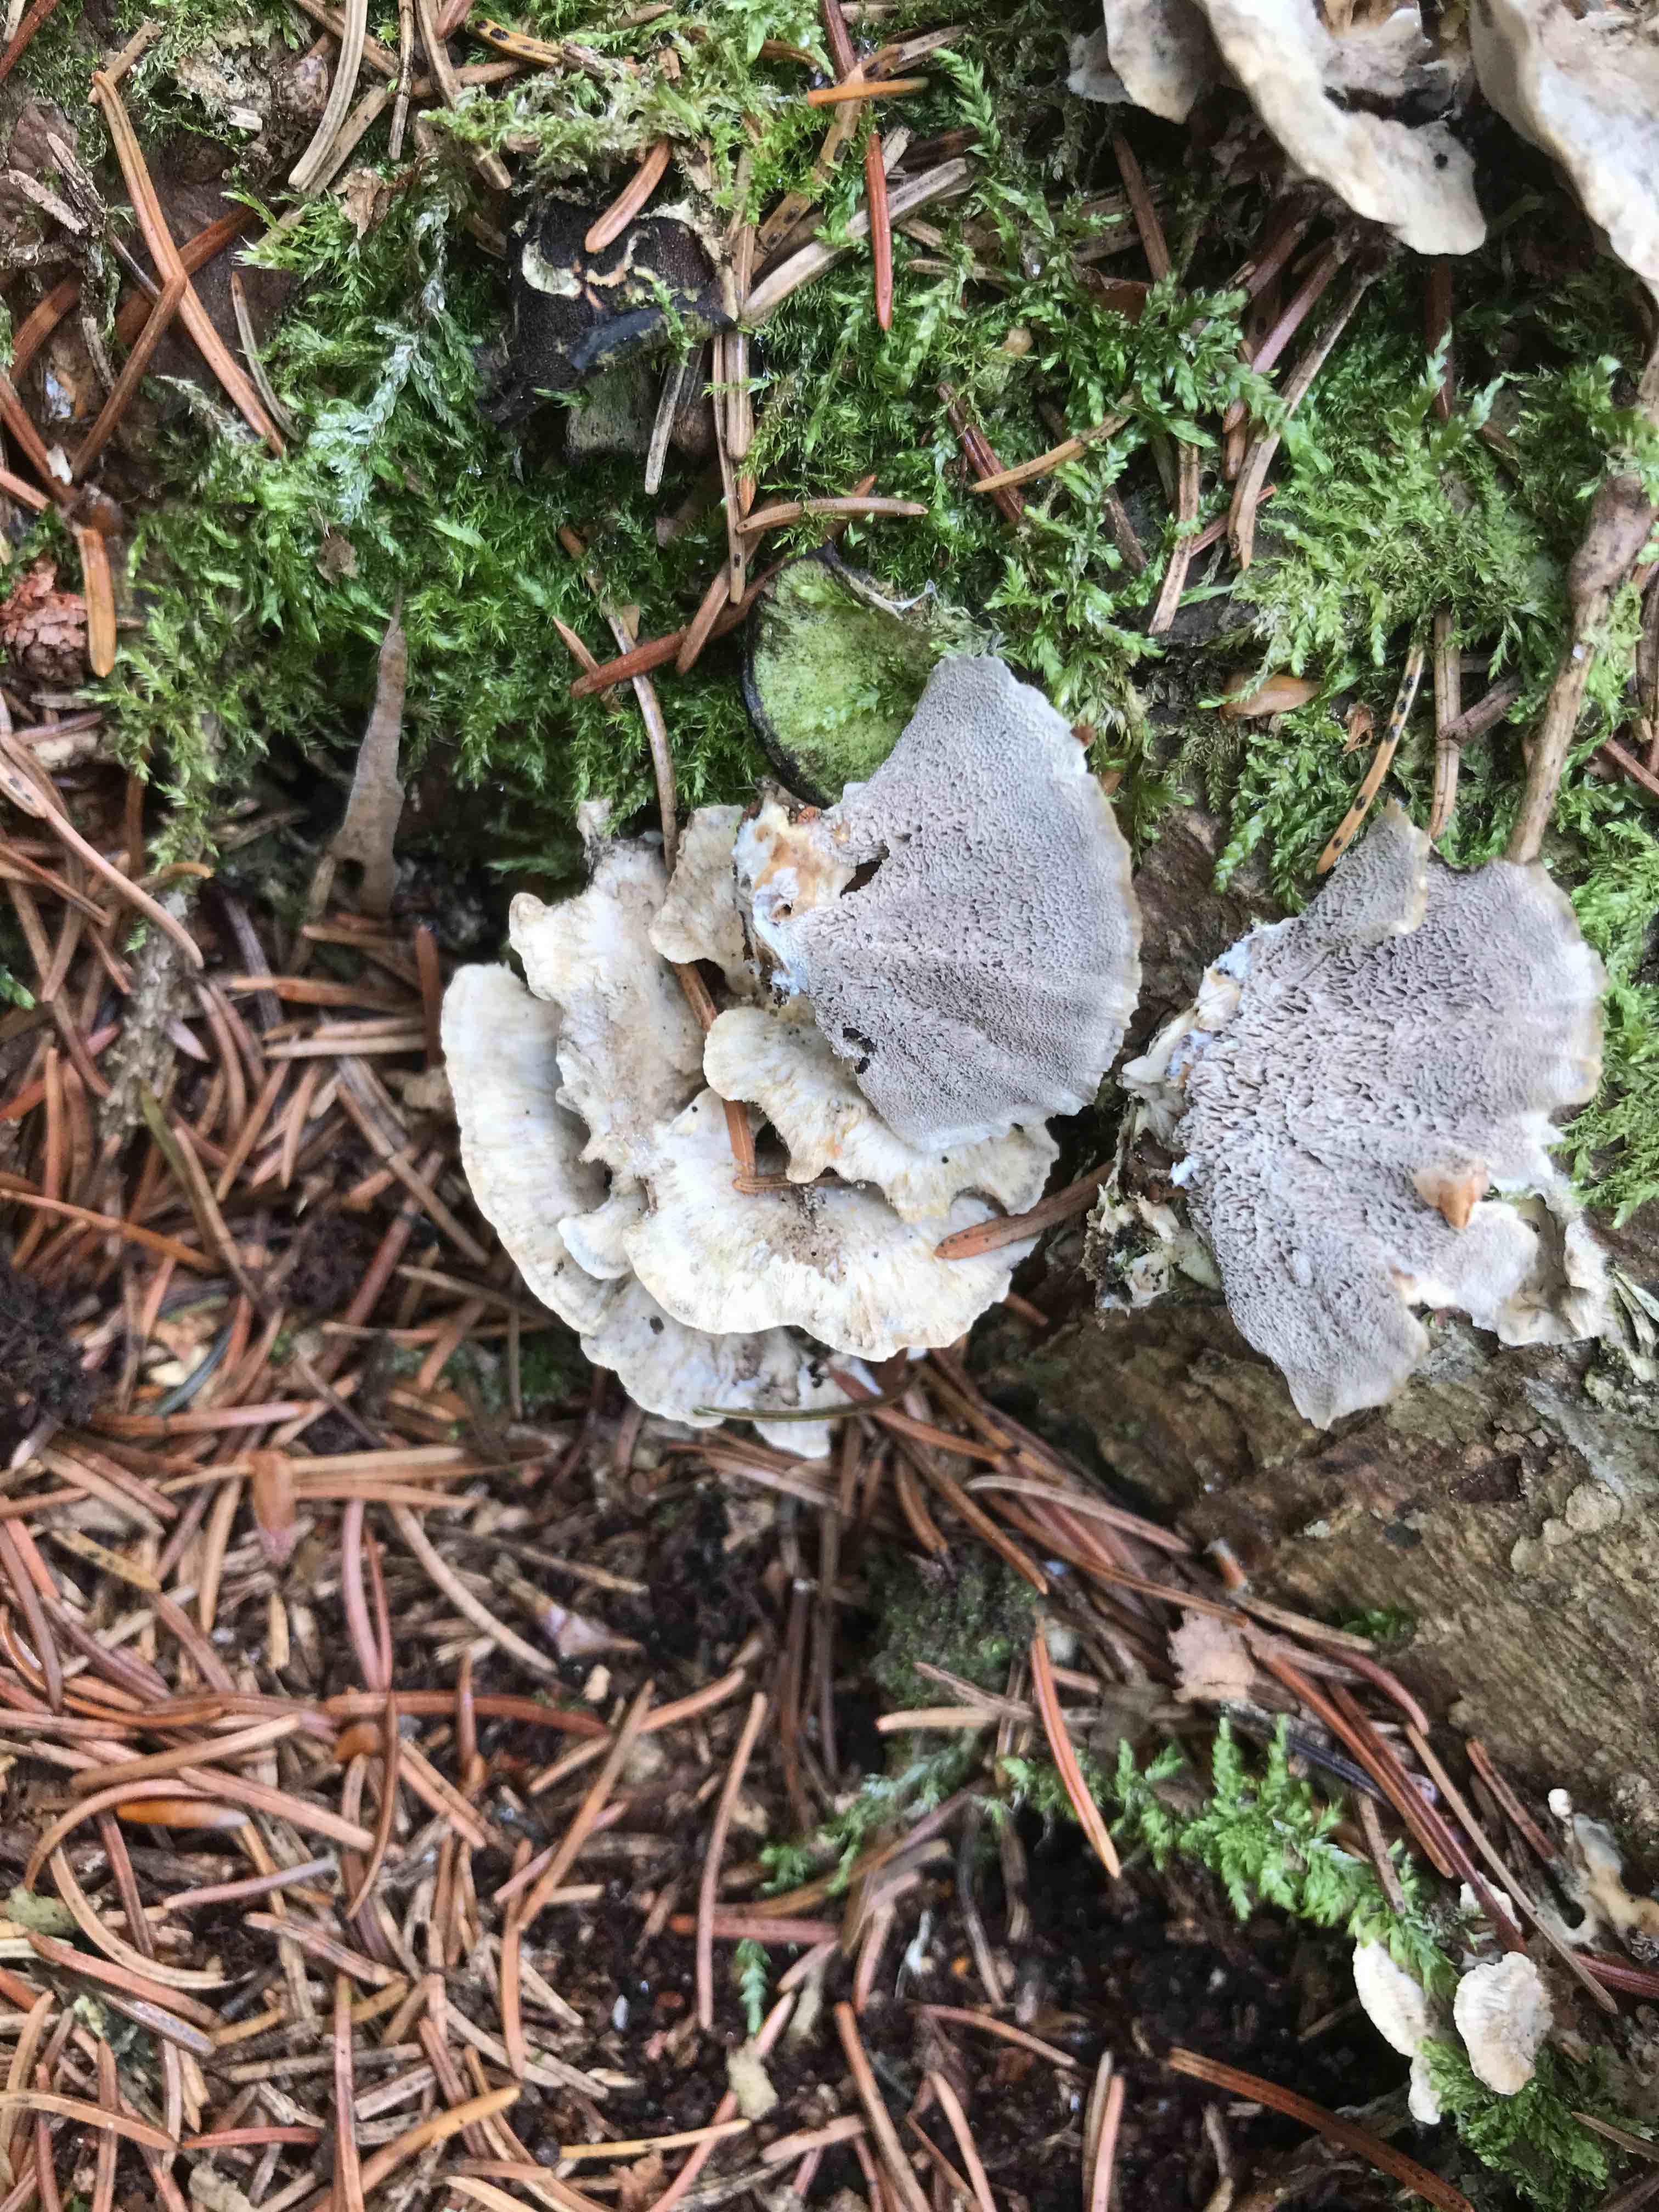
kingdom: Fungi
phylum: Basidiomycota
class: Agaricomycetes
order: Polyporales
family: Phanerochaetaceae
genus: Bjerkandera
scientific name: Bjerkandera adusta
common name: sveden sodporesvamp
